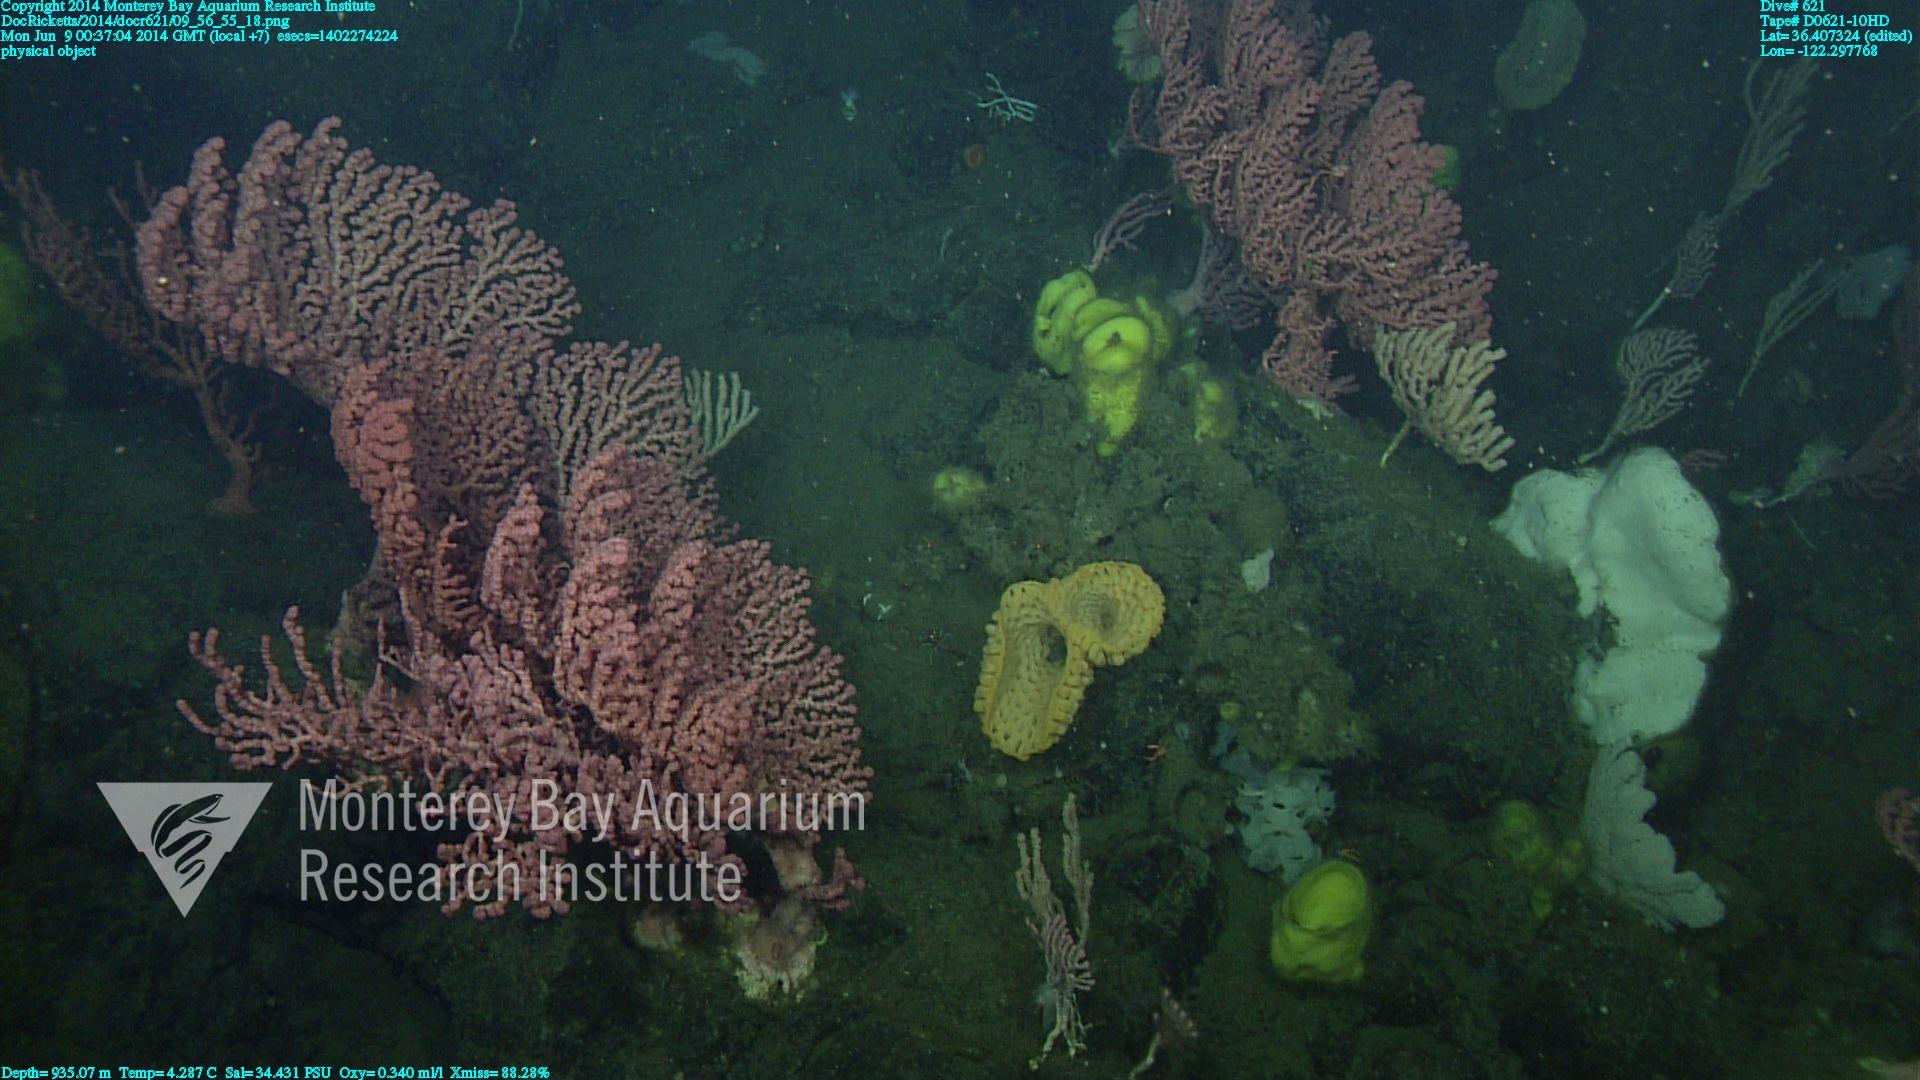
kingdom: Animalia
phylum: Cnidaria
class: Anthozoa
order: Scleralcyonacea
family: Coralliidae
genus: Paragorgia
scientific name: Paragorgia arborea
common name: Bubble gum coral
